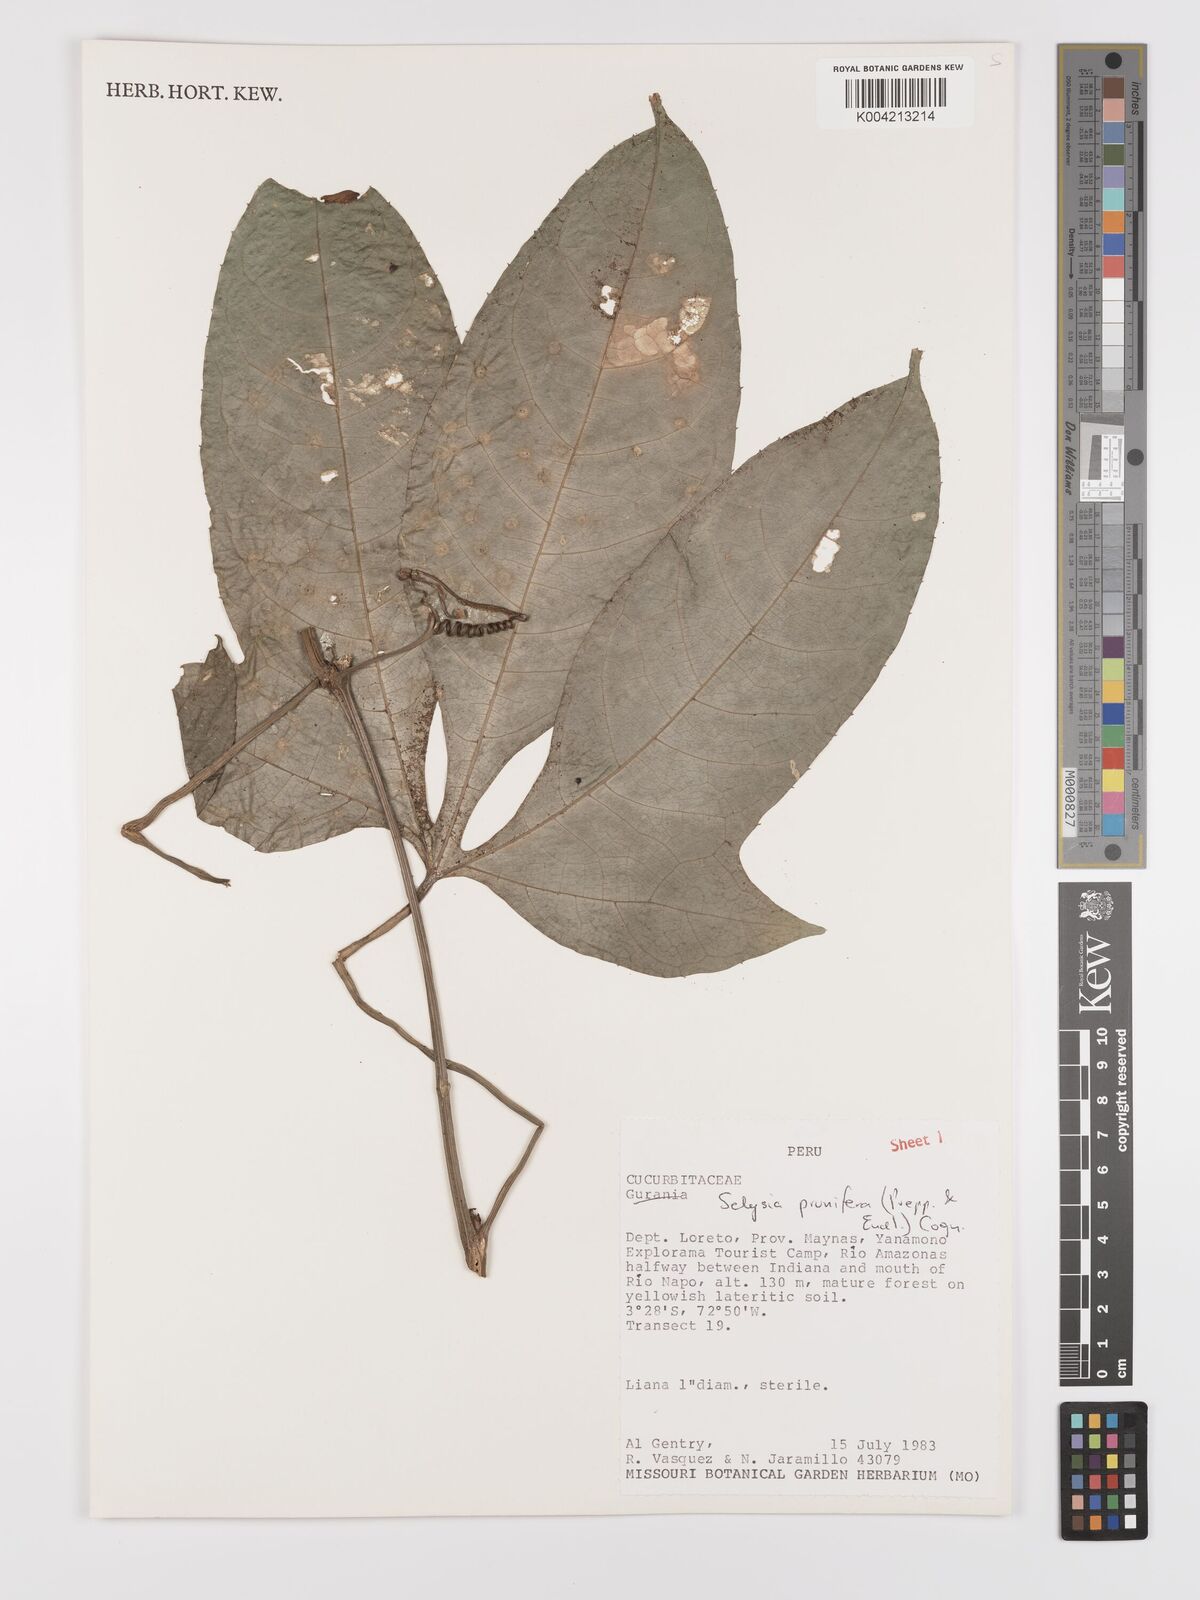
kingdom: Plantae
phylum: Tracheophyta
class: Magnoliopsida
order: Cucurbitales
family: Cucurbitaceae
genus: Cayaponia
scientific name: Cayaponia prunifera
